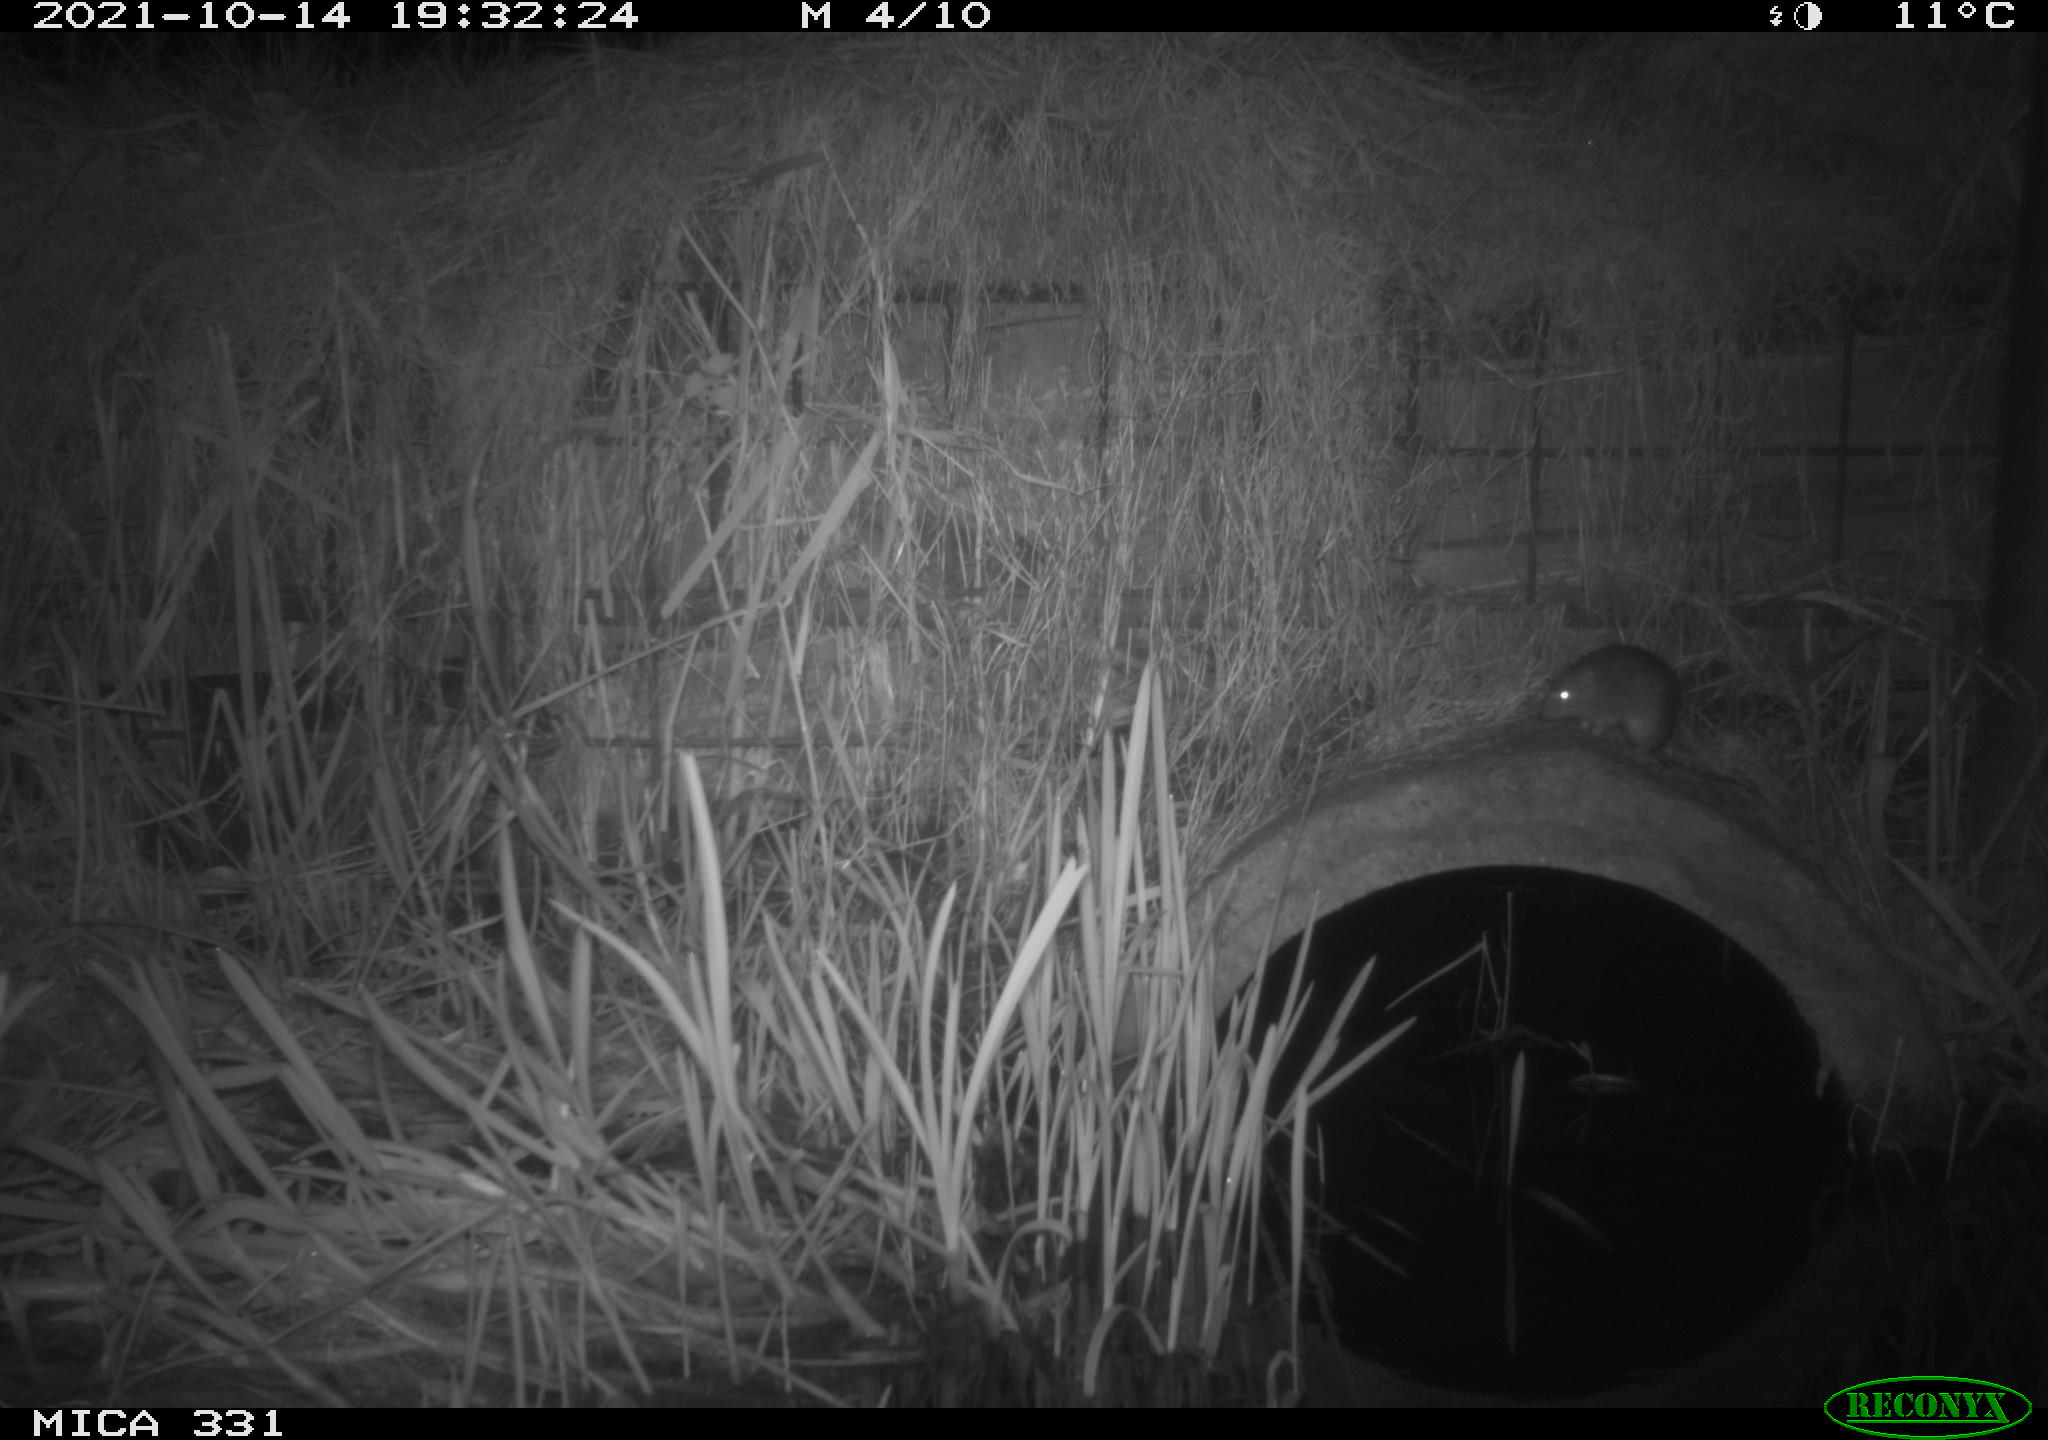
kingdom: Animalia
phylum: Chordata
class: Mammalia
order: Rodentia
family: Muridae
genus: Rattus
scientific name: Rattus norvegicus
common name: Brown rat
